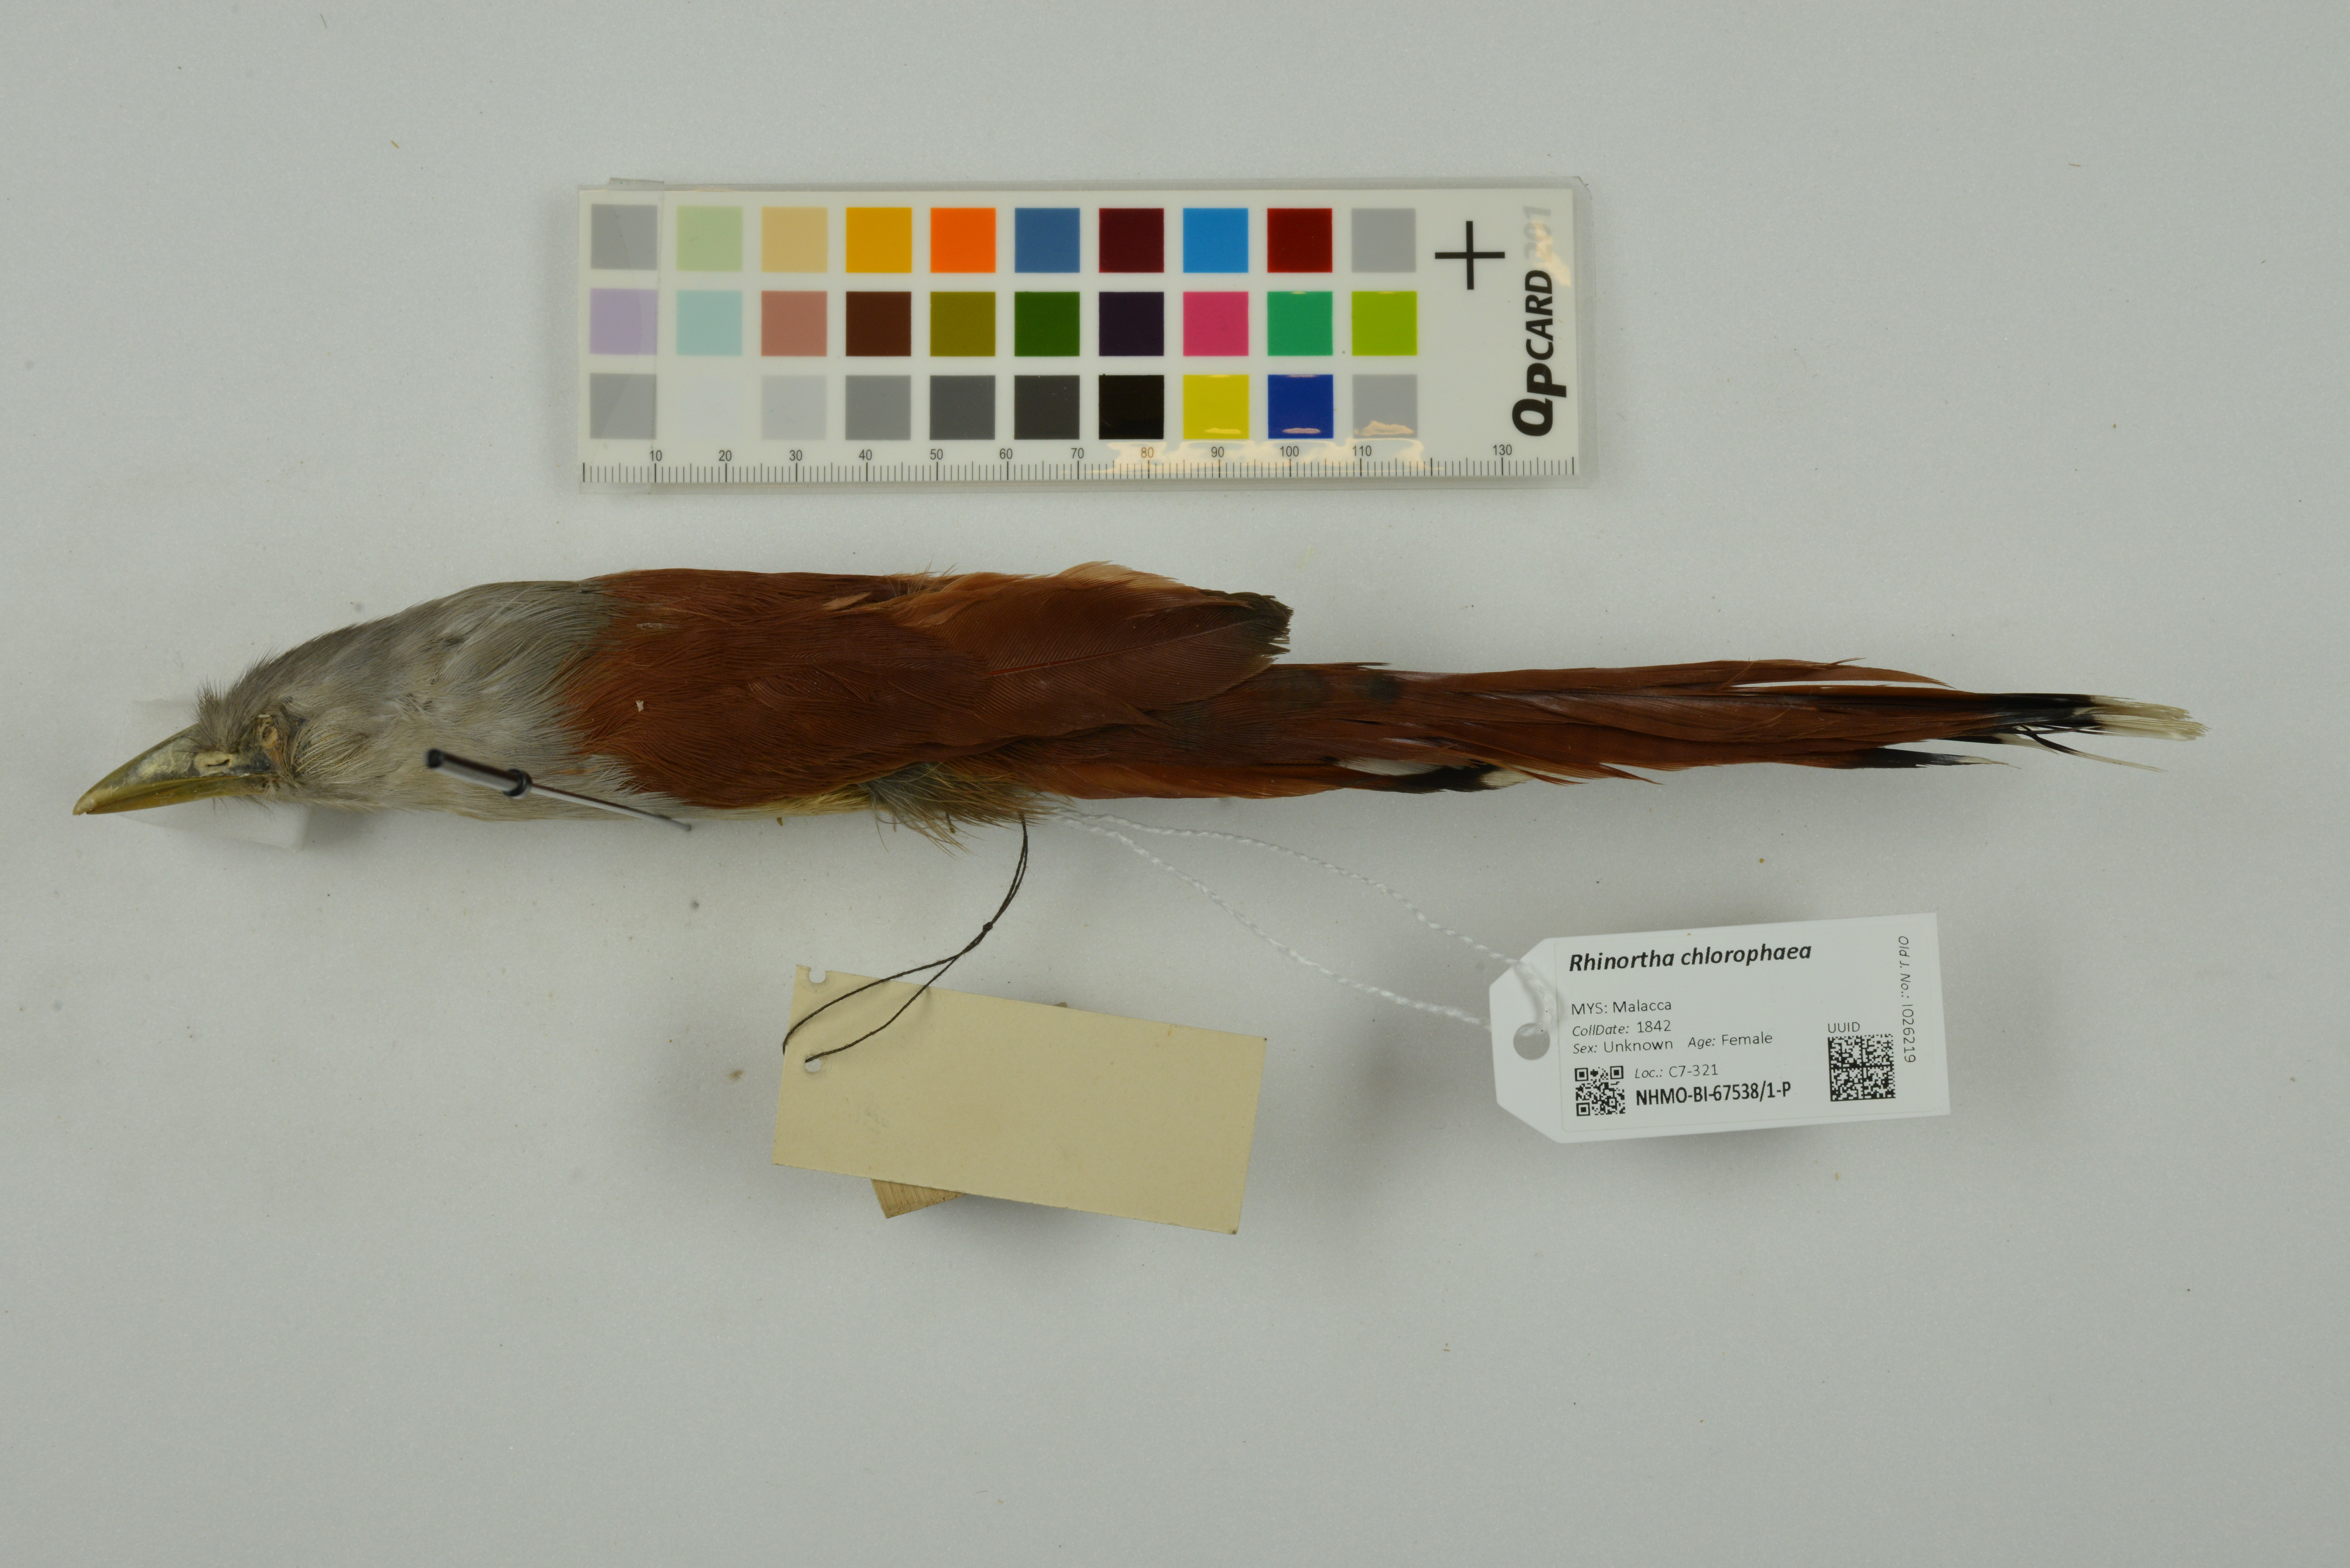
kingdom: Animalia
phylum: Chordata
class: Aves
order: Cuculiformes
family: Cuculidae
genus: Rhinortha
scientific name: Rhinortha chlorophaea
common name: Raffles's malkoha
